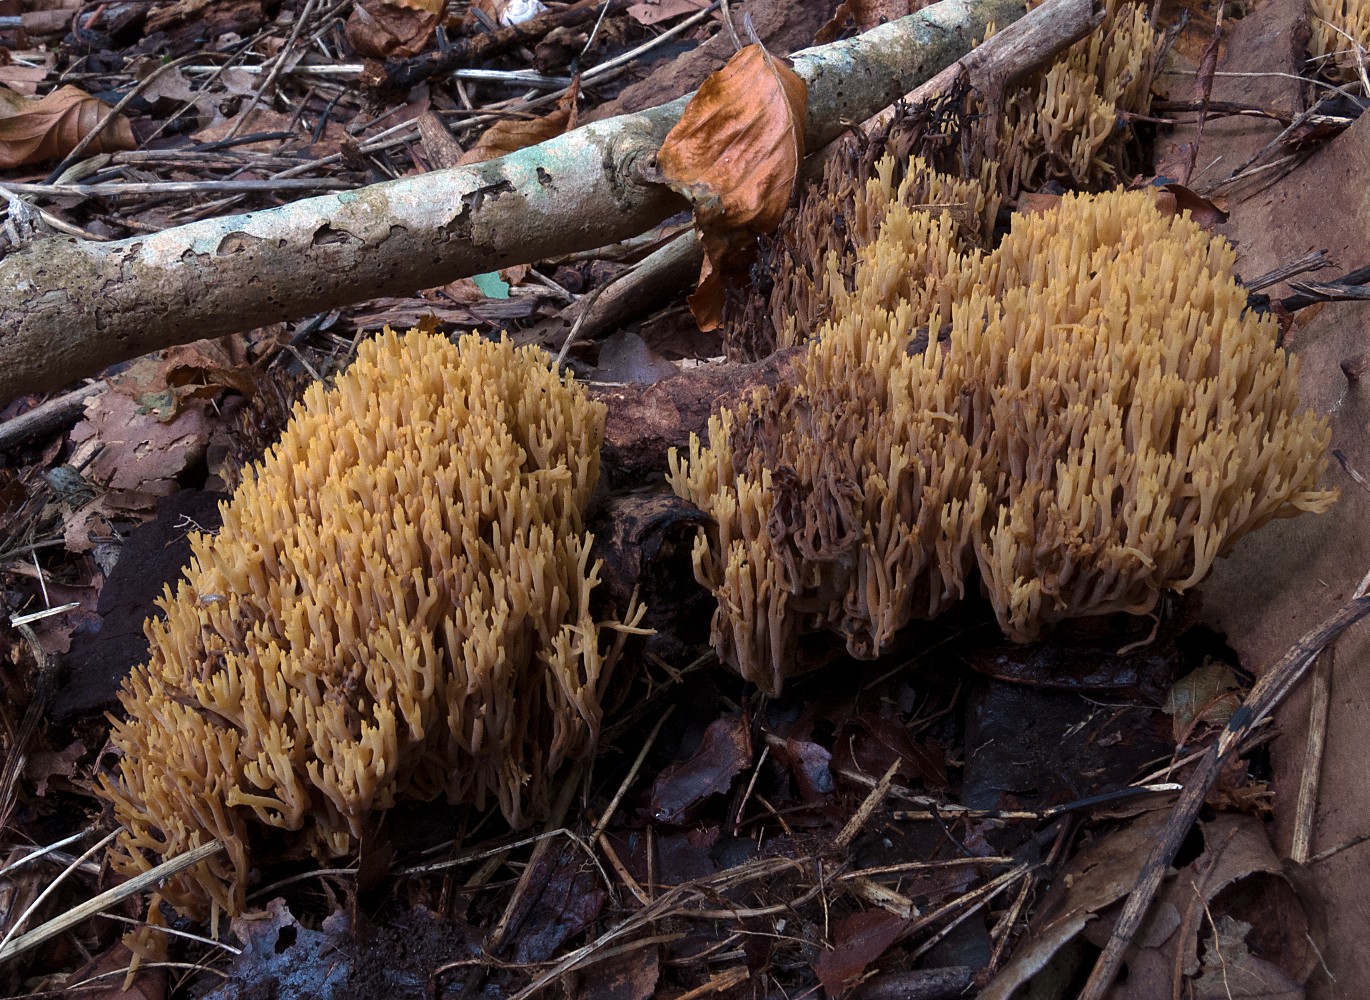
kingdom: Fungi
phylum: Basidiomycota
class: Agaricomycetes
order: Gomphales
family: Gomphaceae
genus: Phaeoclavulina
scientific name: Phaeoclavulina decurrens
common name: krat-koralsvamp
